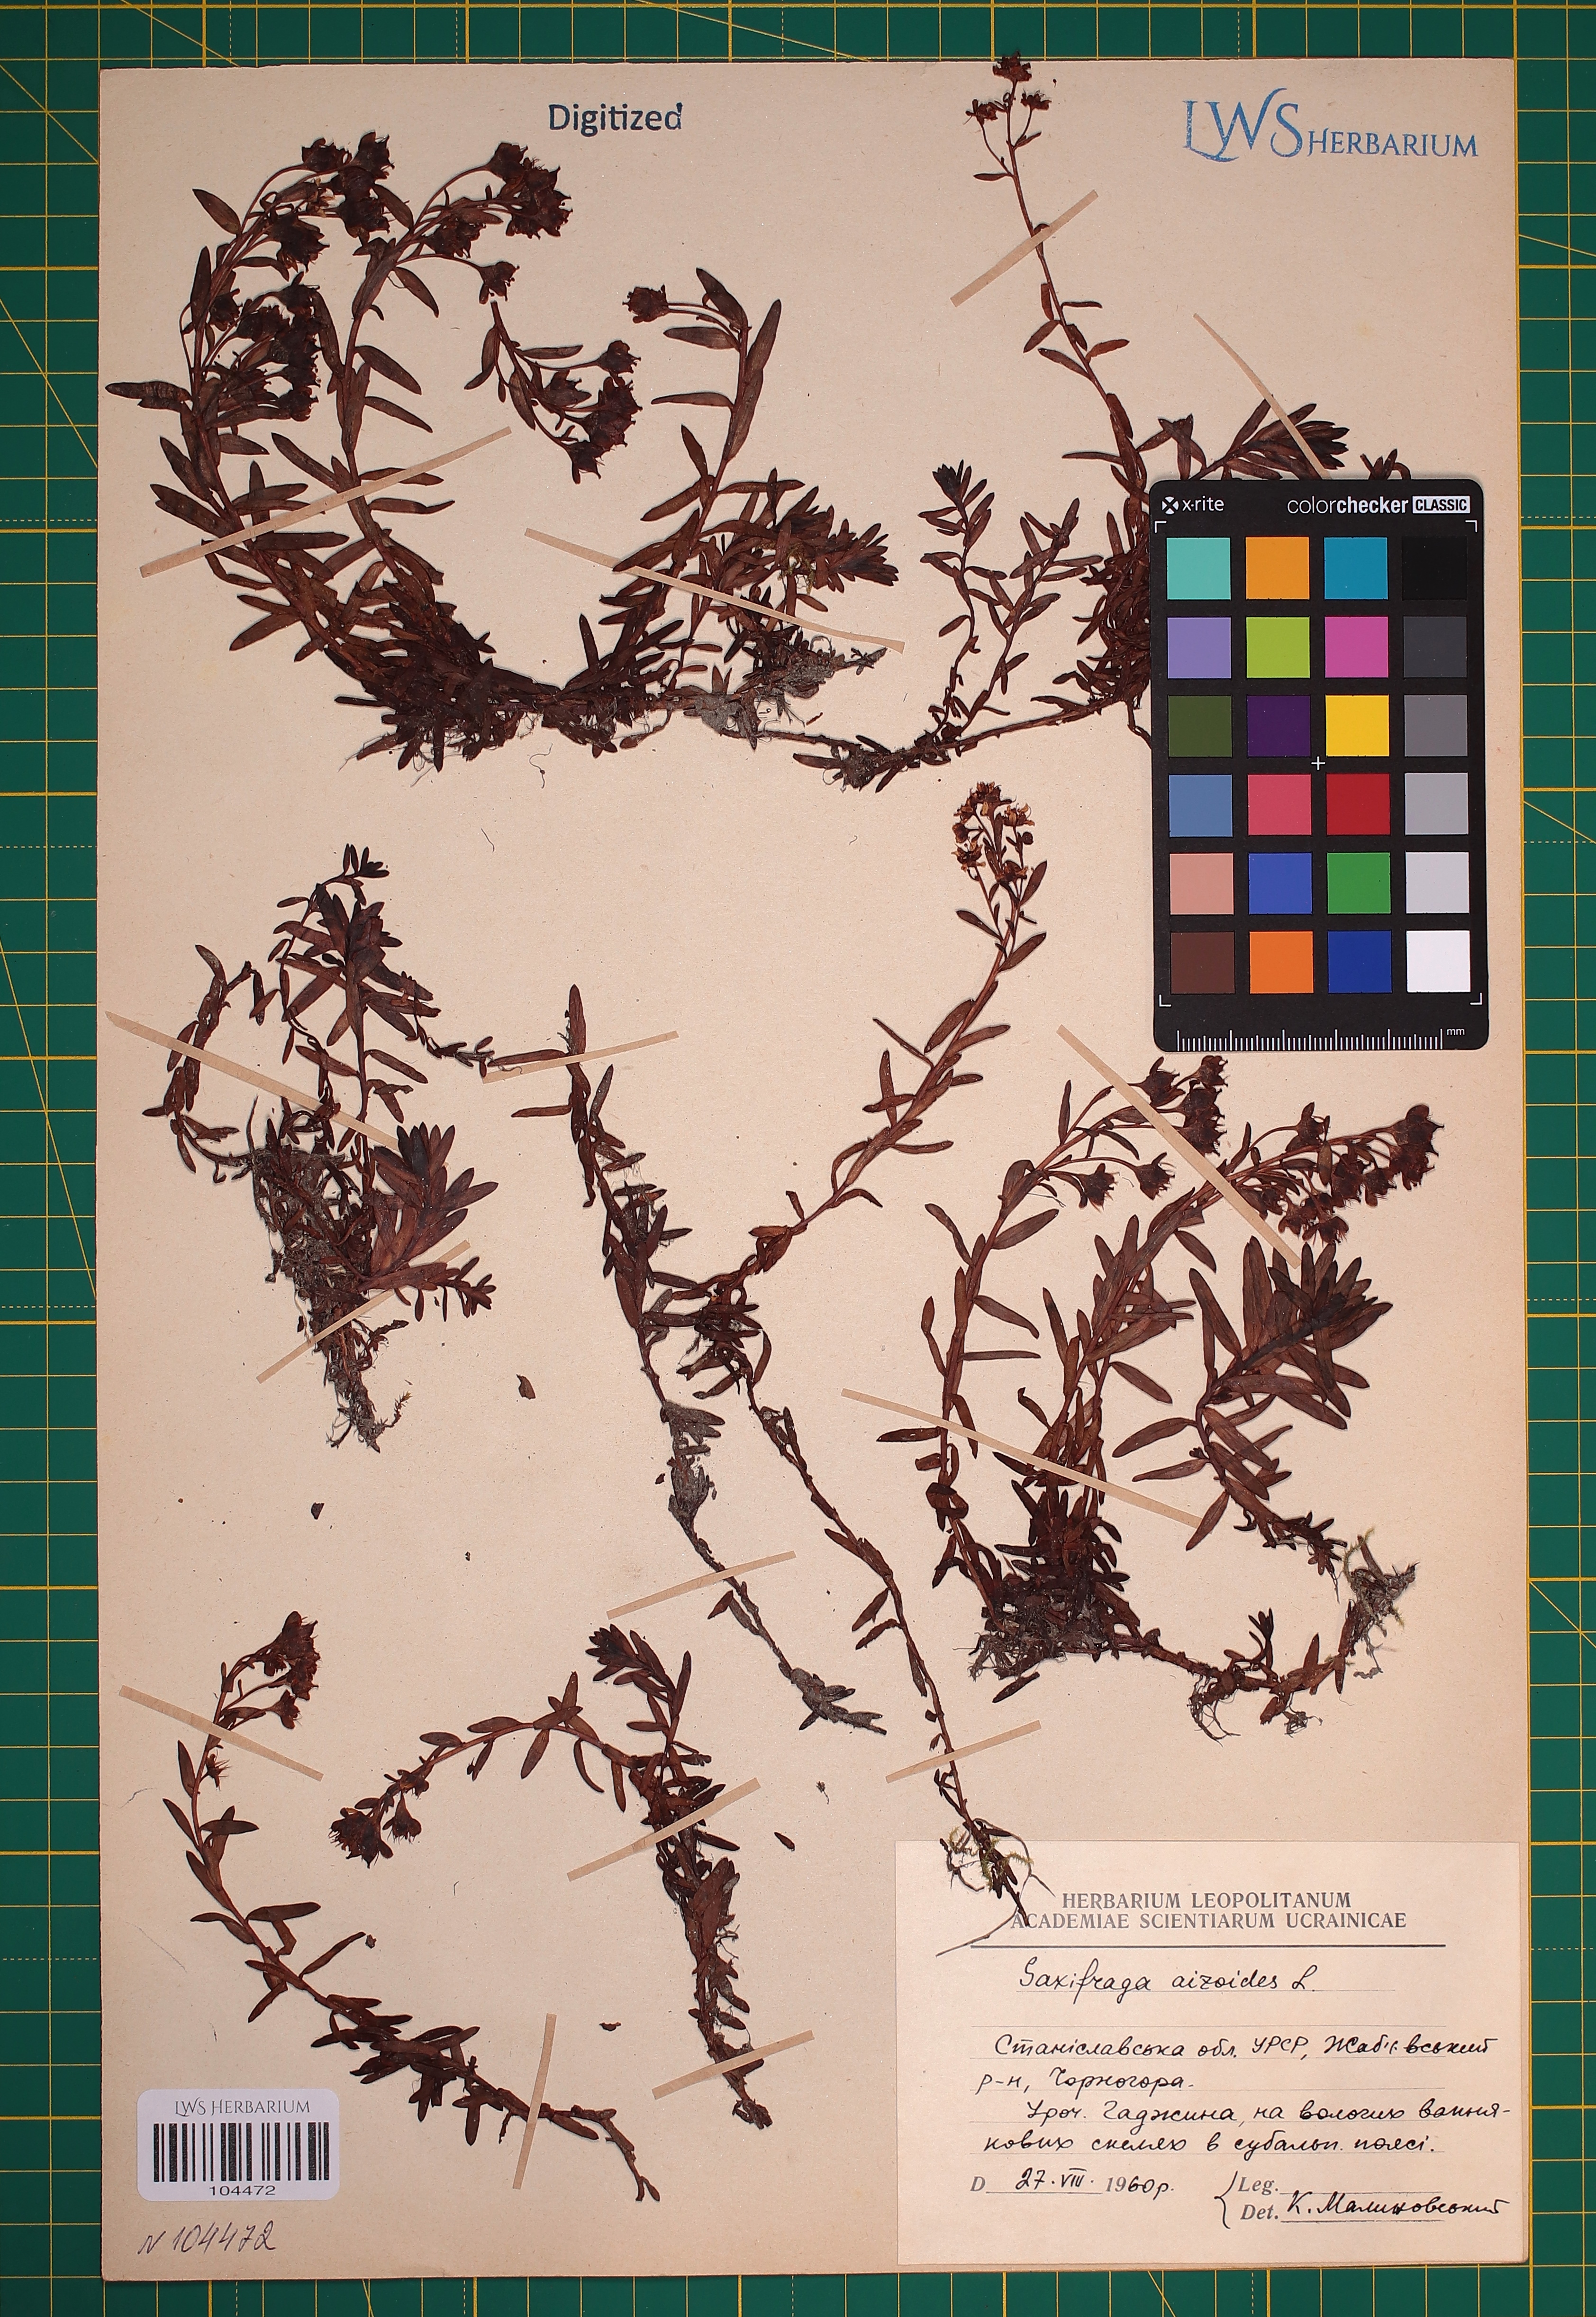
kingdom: Plantae
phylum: Tracheophyta
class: Magnoliopsida
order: Saxifragales
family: Saxifragaceae
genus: Saxifraga
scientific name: Saxifraga aizoides
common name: Yellow mountain saxifrage
